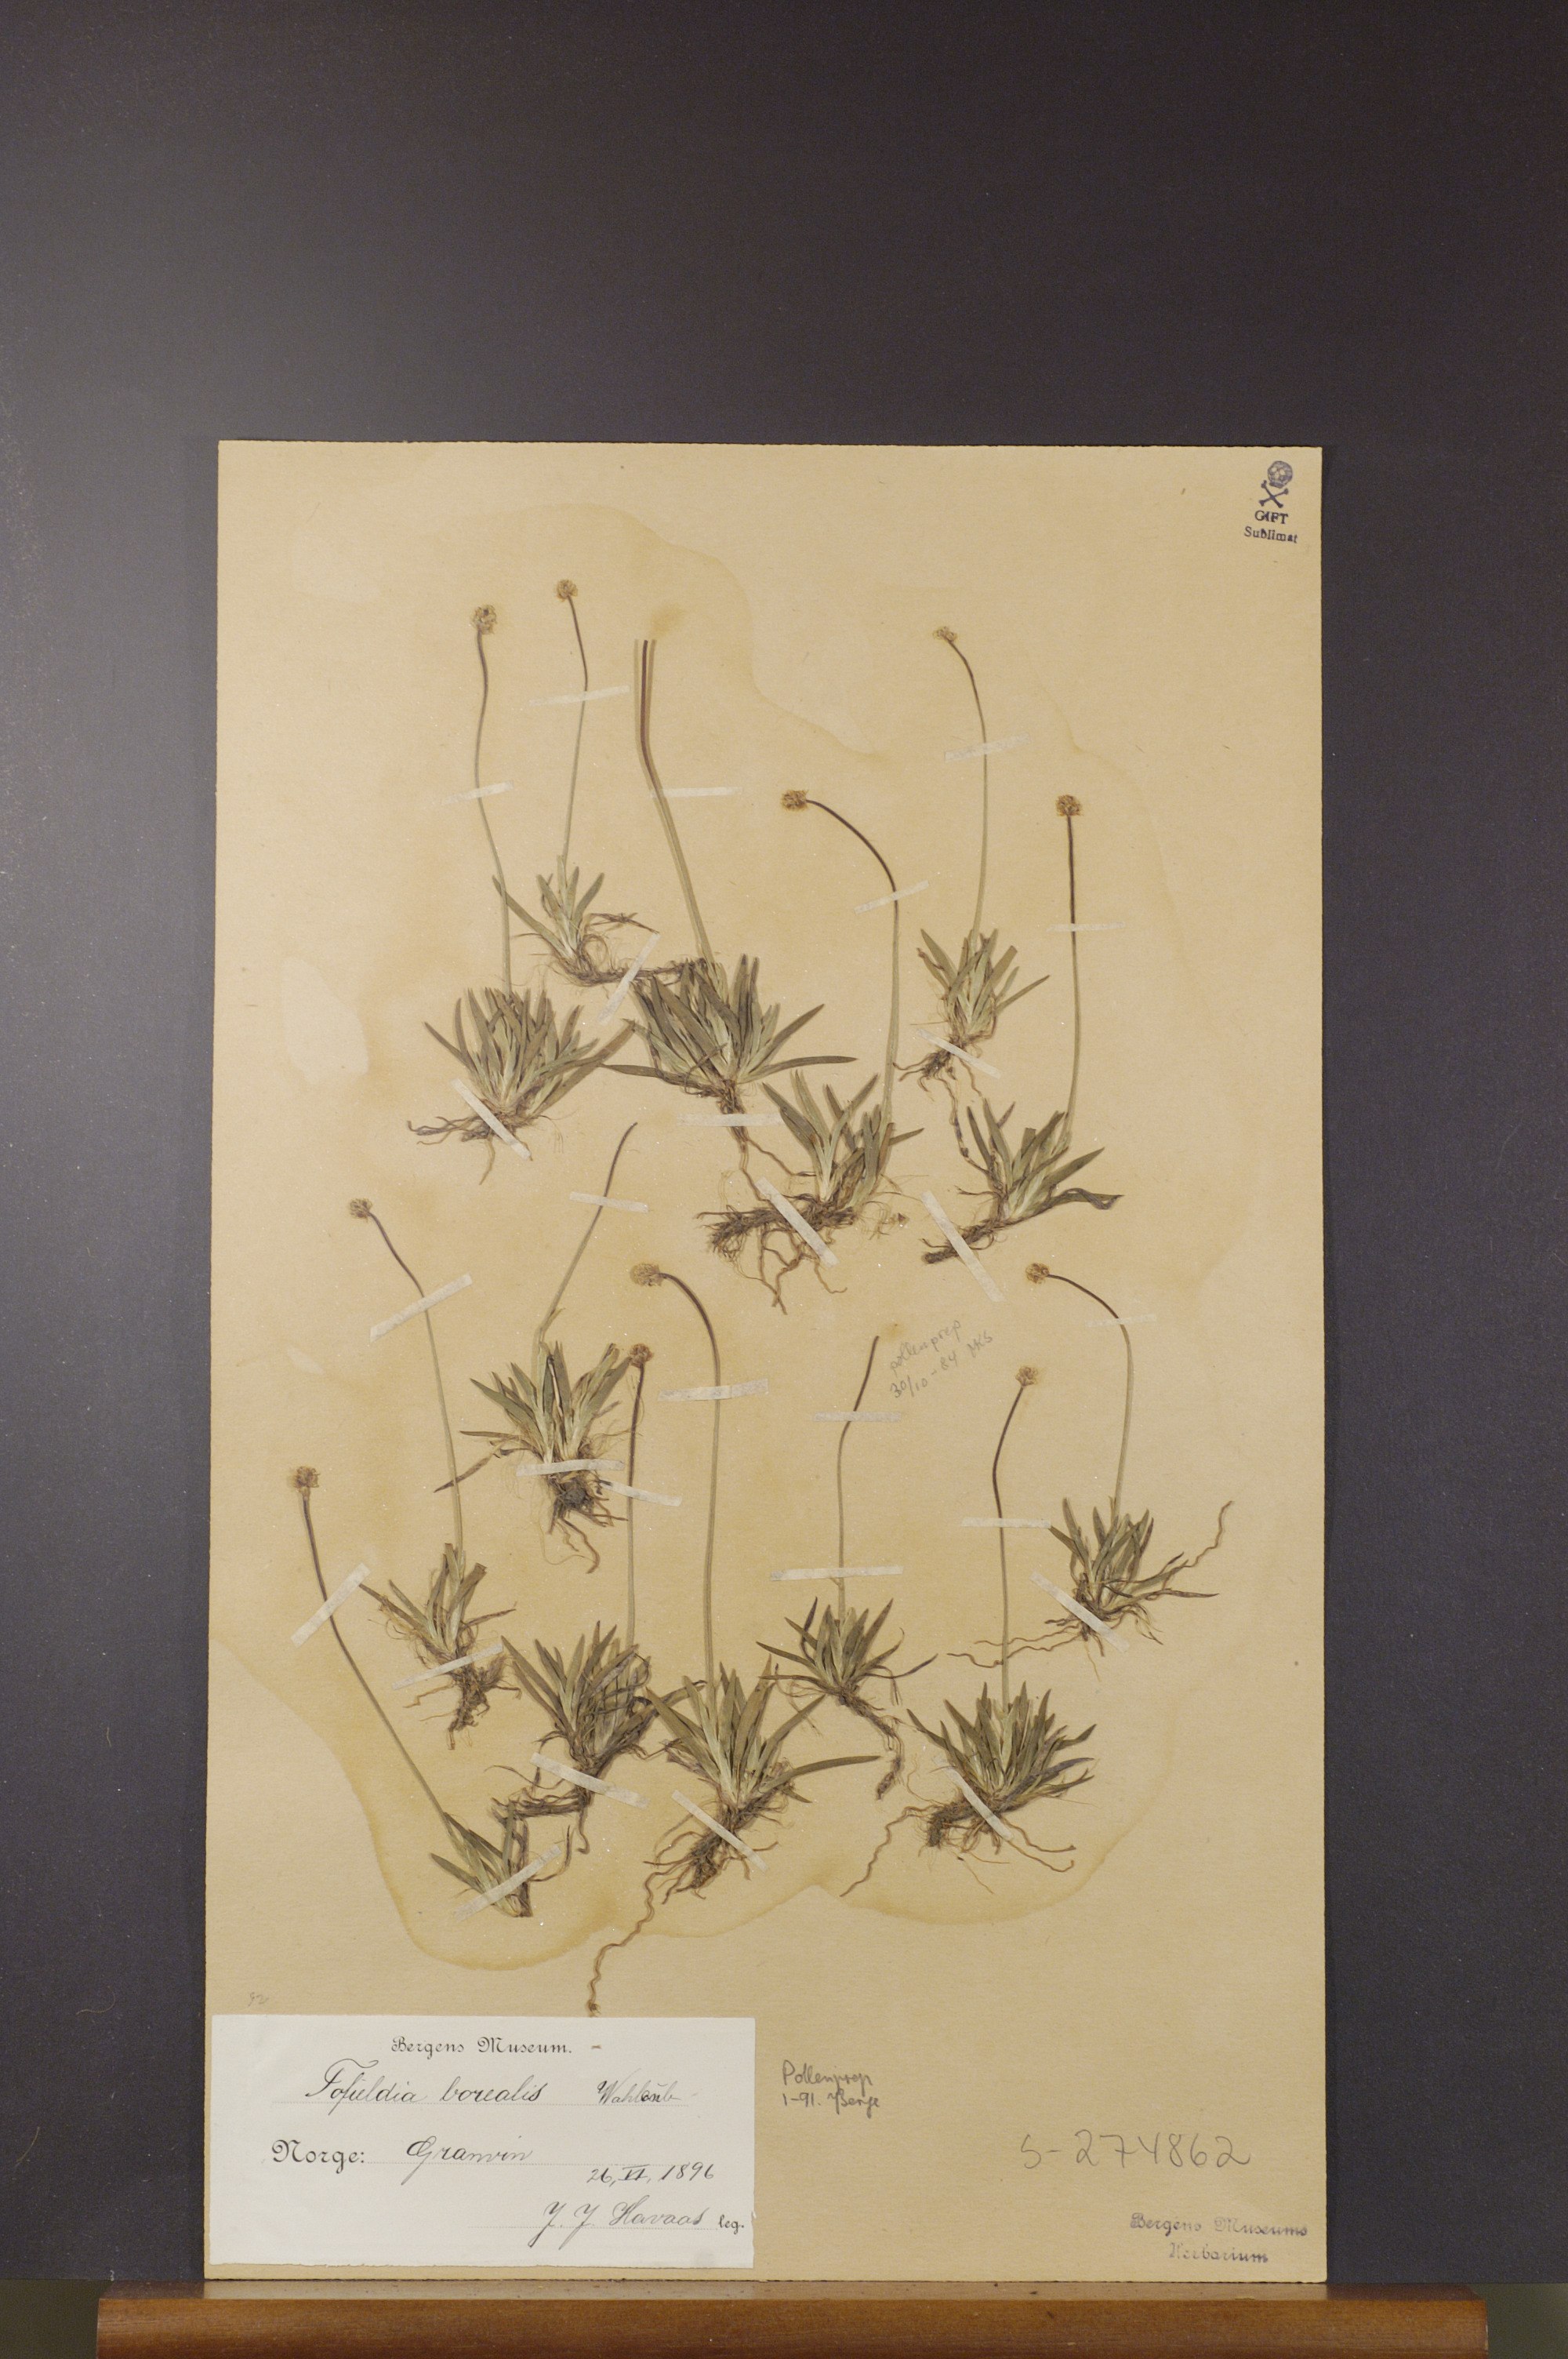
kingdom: Plantae
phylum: Tracheophyta
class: Liliopsida
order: Alismatales
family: Tofieldiaceae
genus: Tofieldia
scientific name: Tofieldia pusilla
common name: Scottish false asphodel
